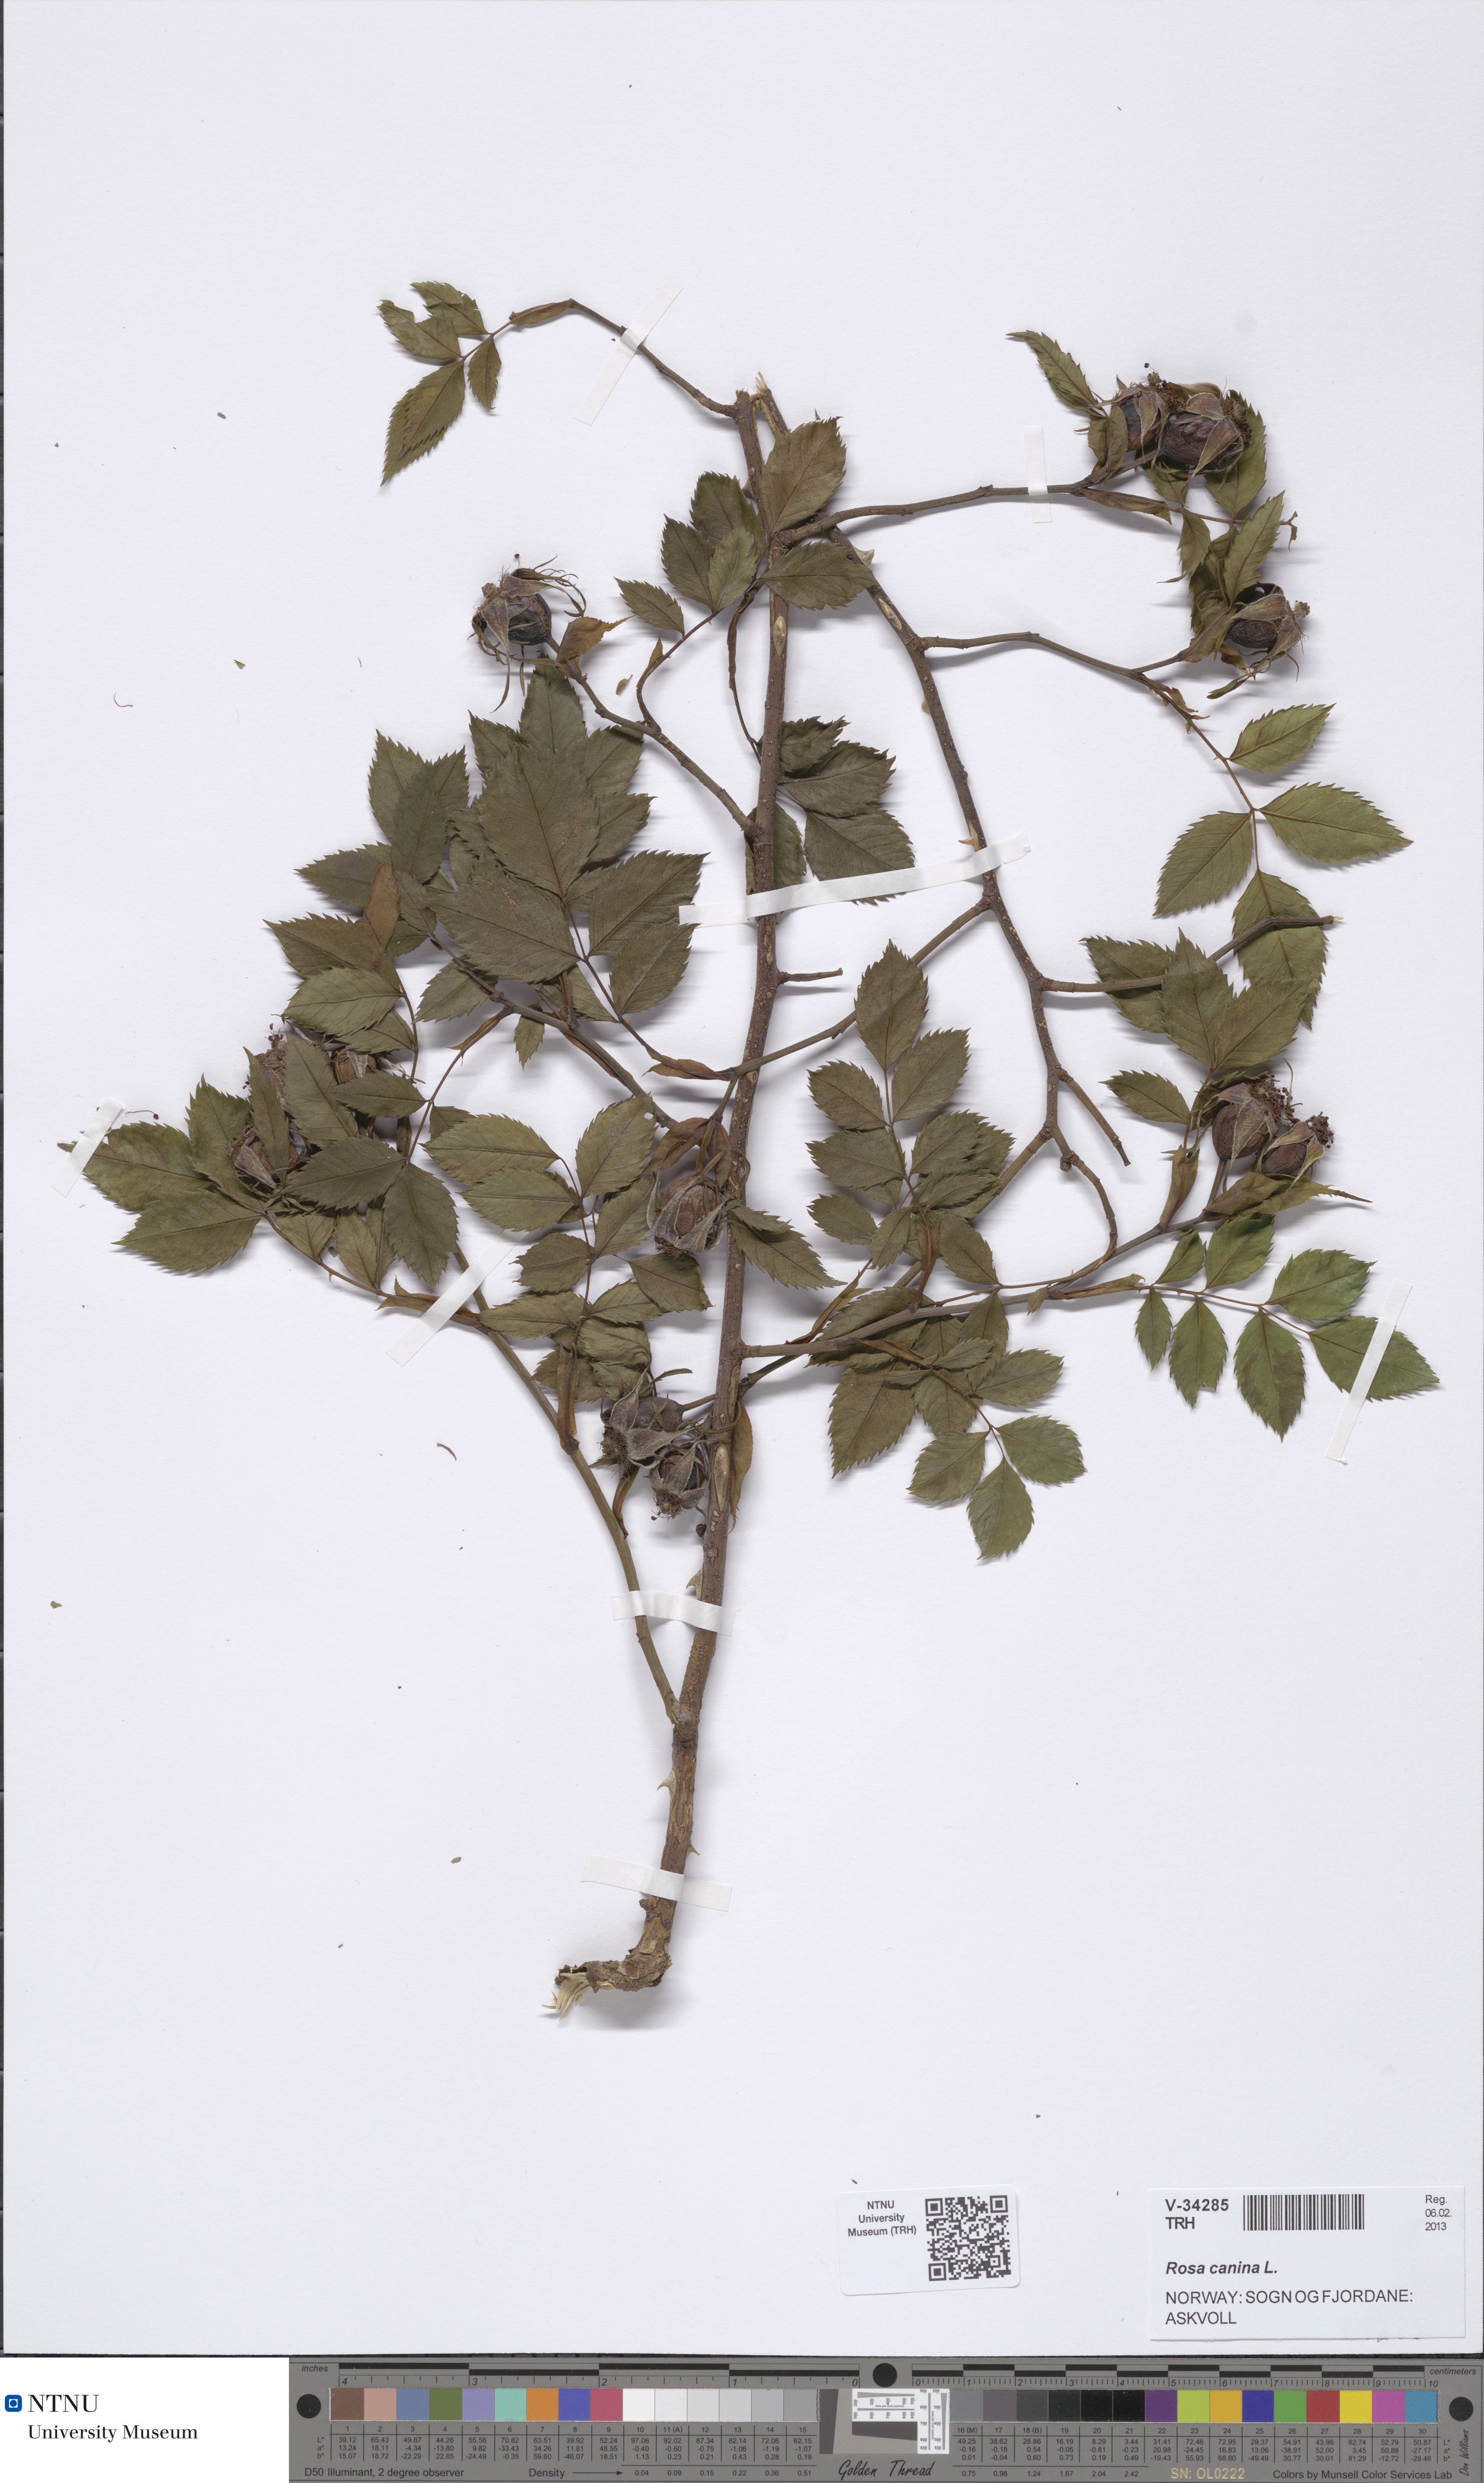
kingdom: Plantae
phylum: Tracheophyta
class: Magnoliopsida
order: Rosales
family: Rosaceae
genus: Rosa
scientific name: Rosa canina
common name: Dog rose
